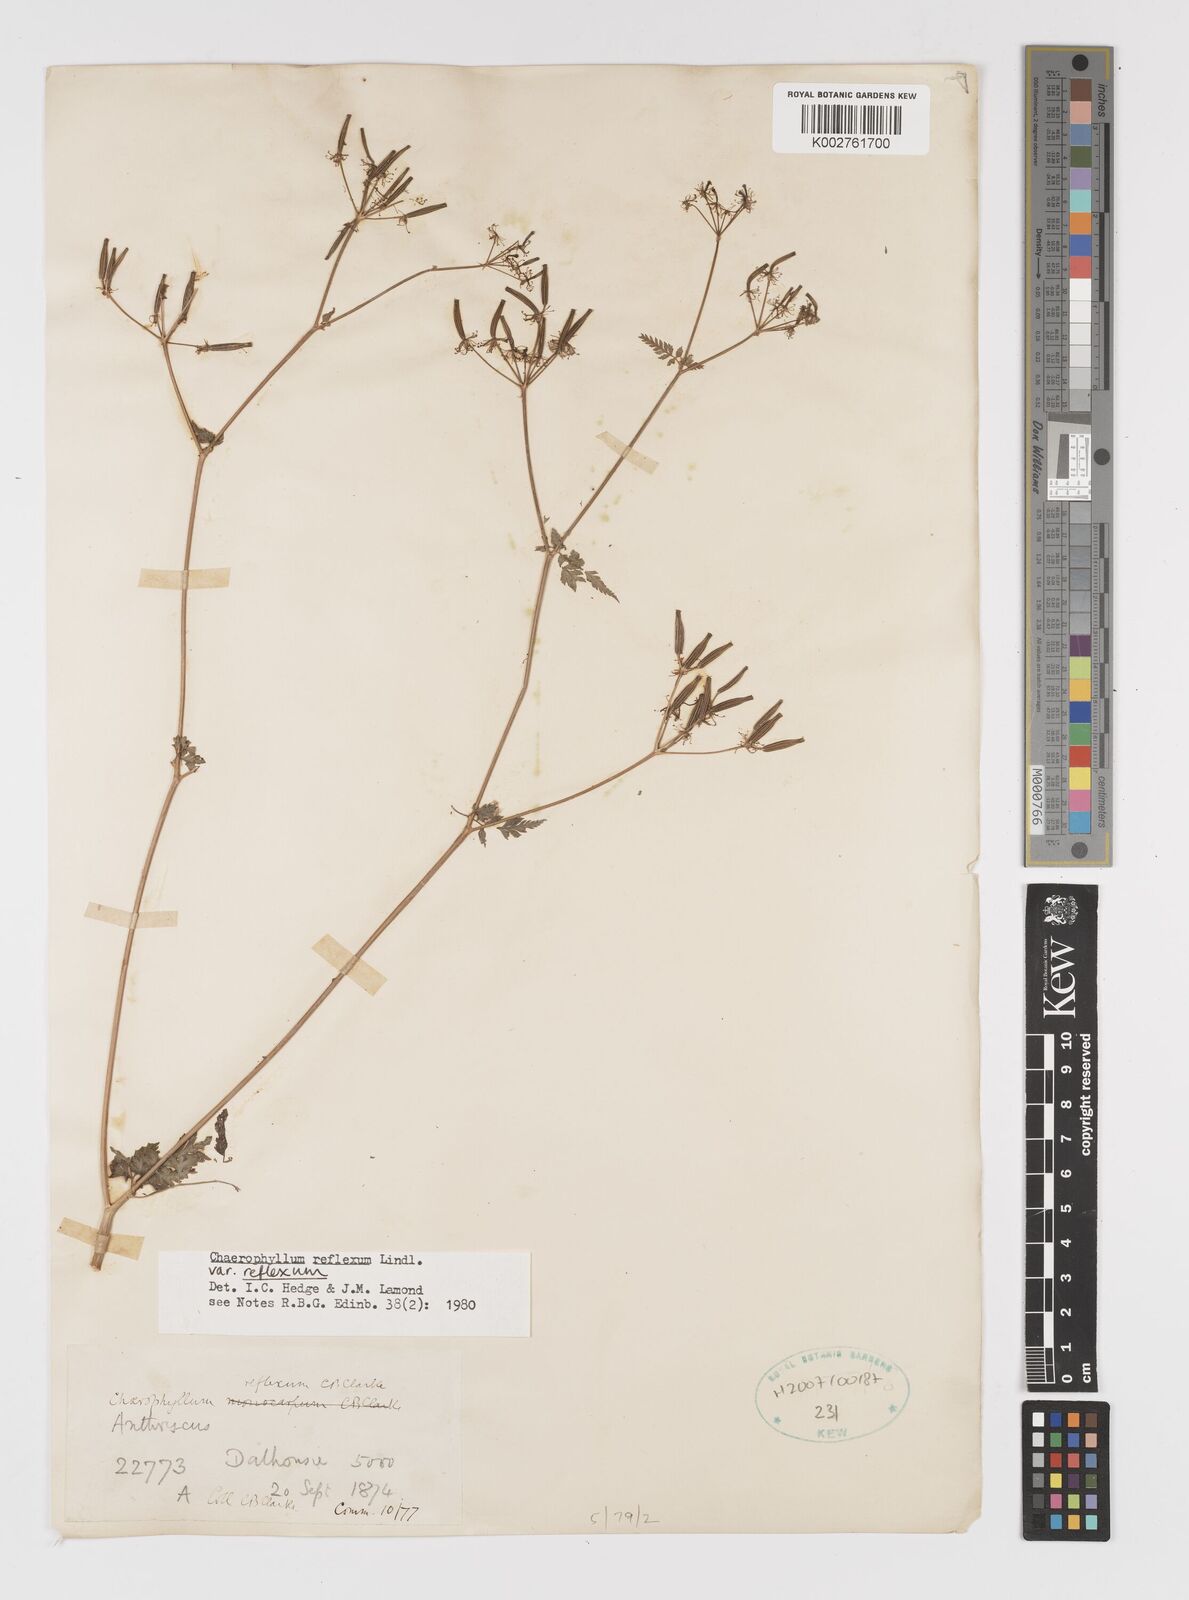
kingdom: Plantae
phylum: Tracheophyta
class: Magnoliopsida
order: Apiales
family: Apiaceae
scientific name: Apiaceae
